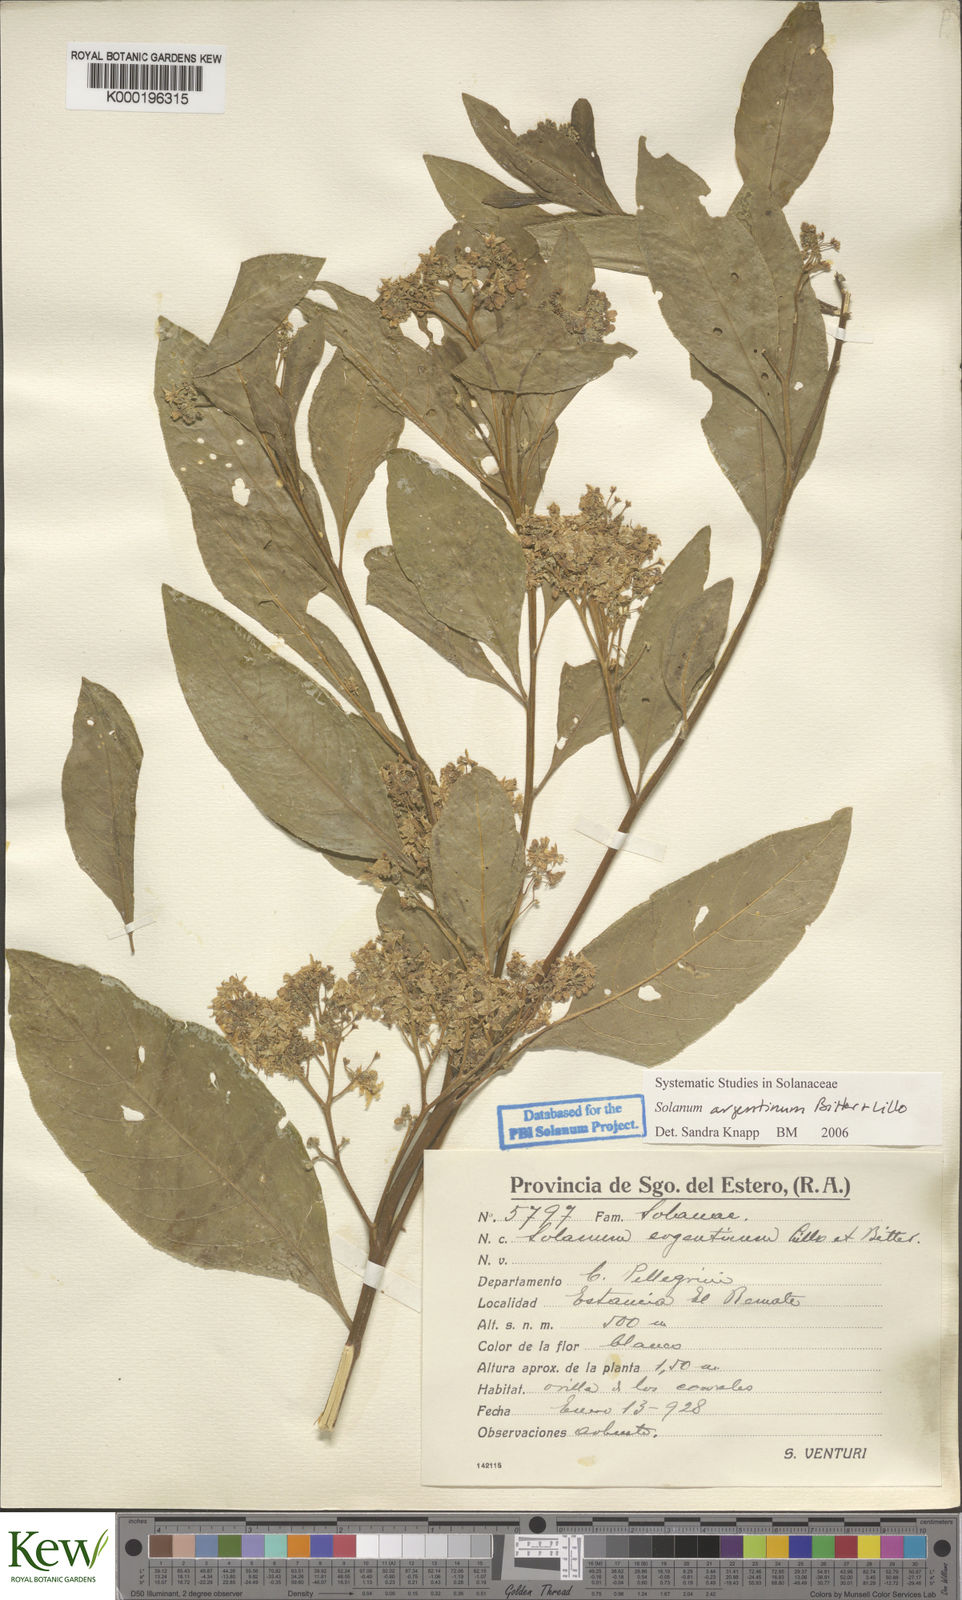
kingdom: Plantae
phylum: Tracheophyta
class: Magnoliopsida
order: Solanales
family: Solanaceae
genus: Solanum
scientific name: Solanum argentinum
